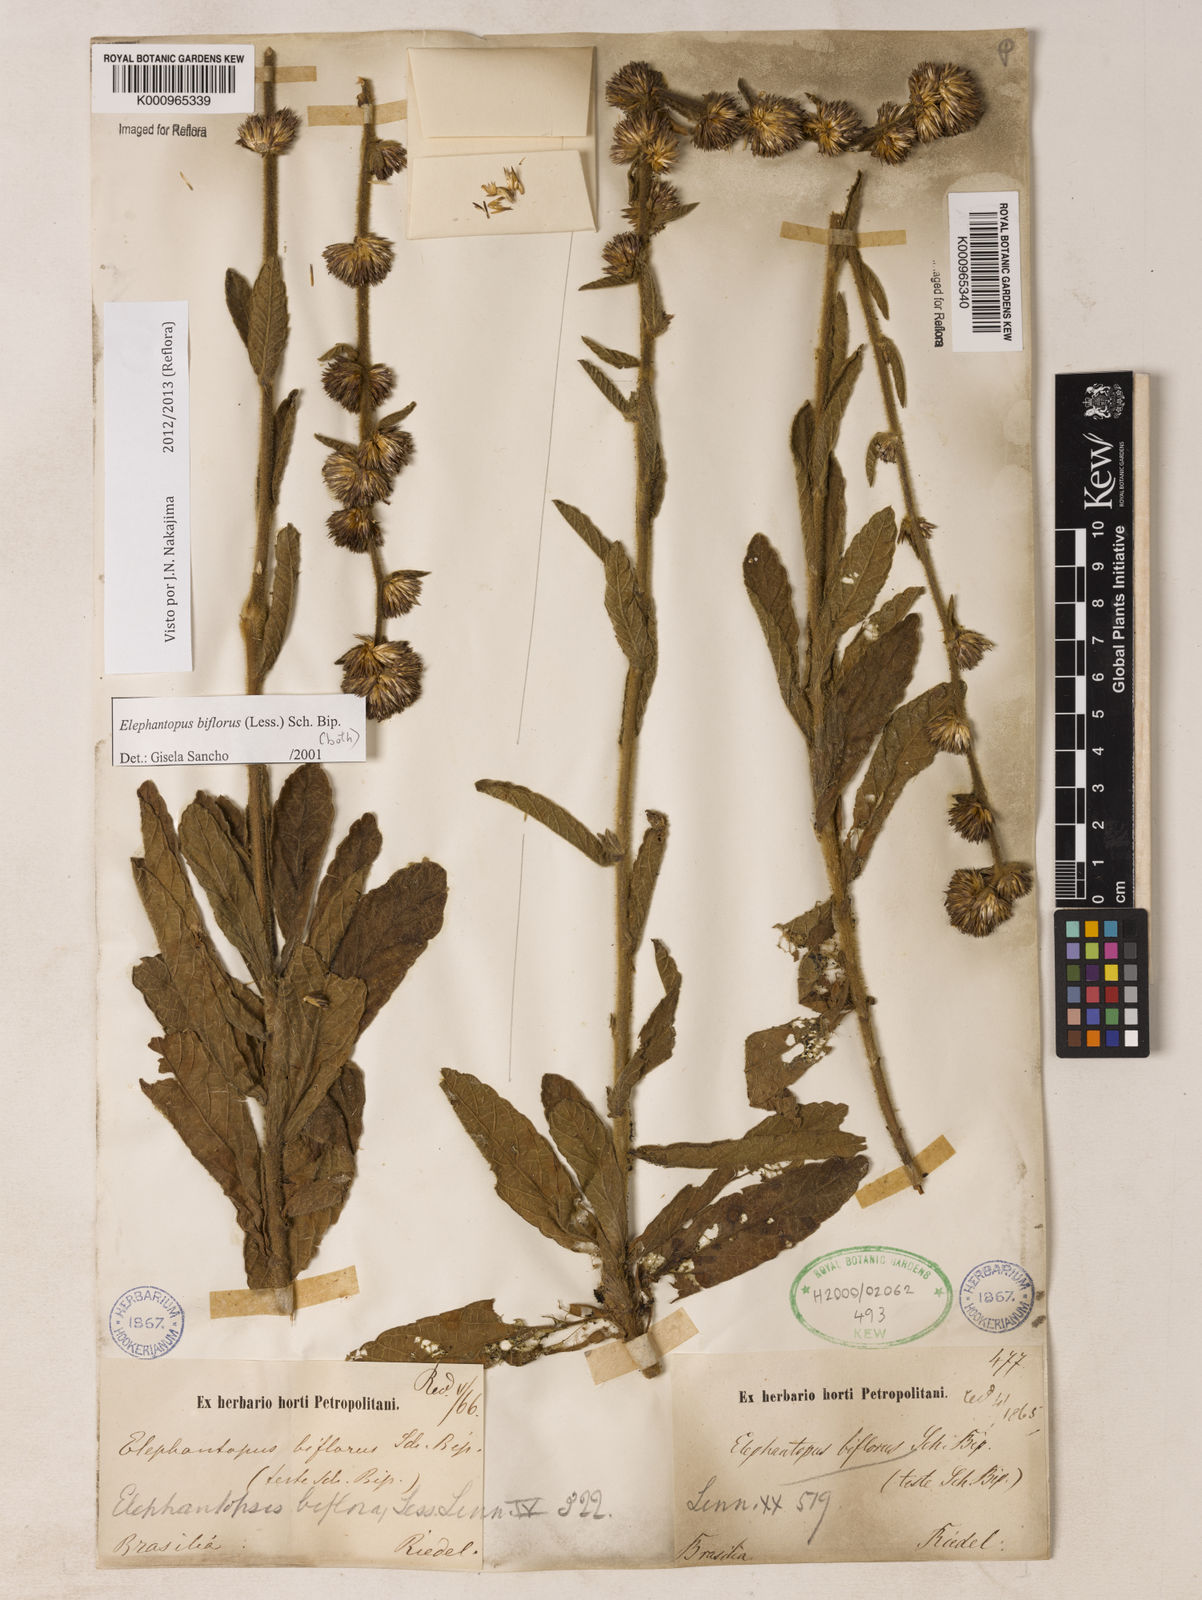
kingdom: Plantae
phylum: Tracheophyta
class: Magnoliopsida
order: Asterales
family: Asteraceae
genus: Elephantopus
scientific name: Elephantopus biflorus
